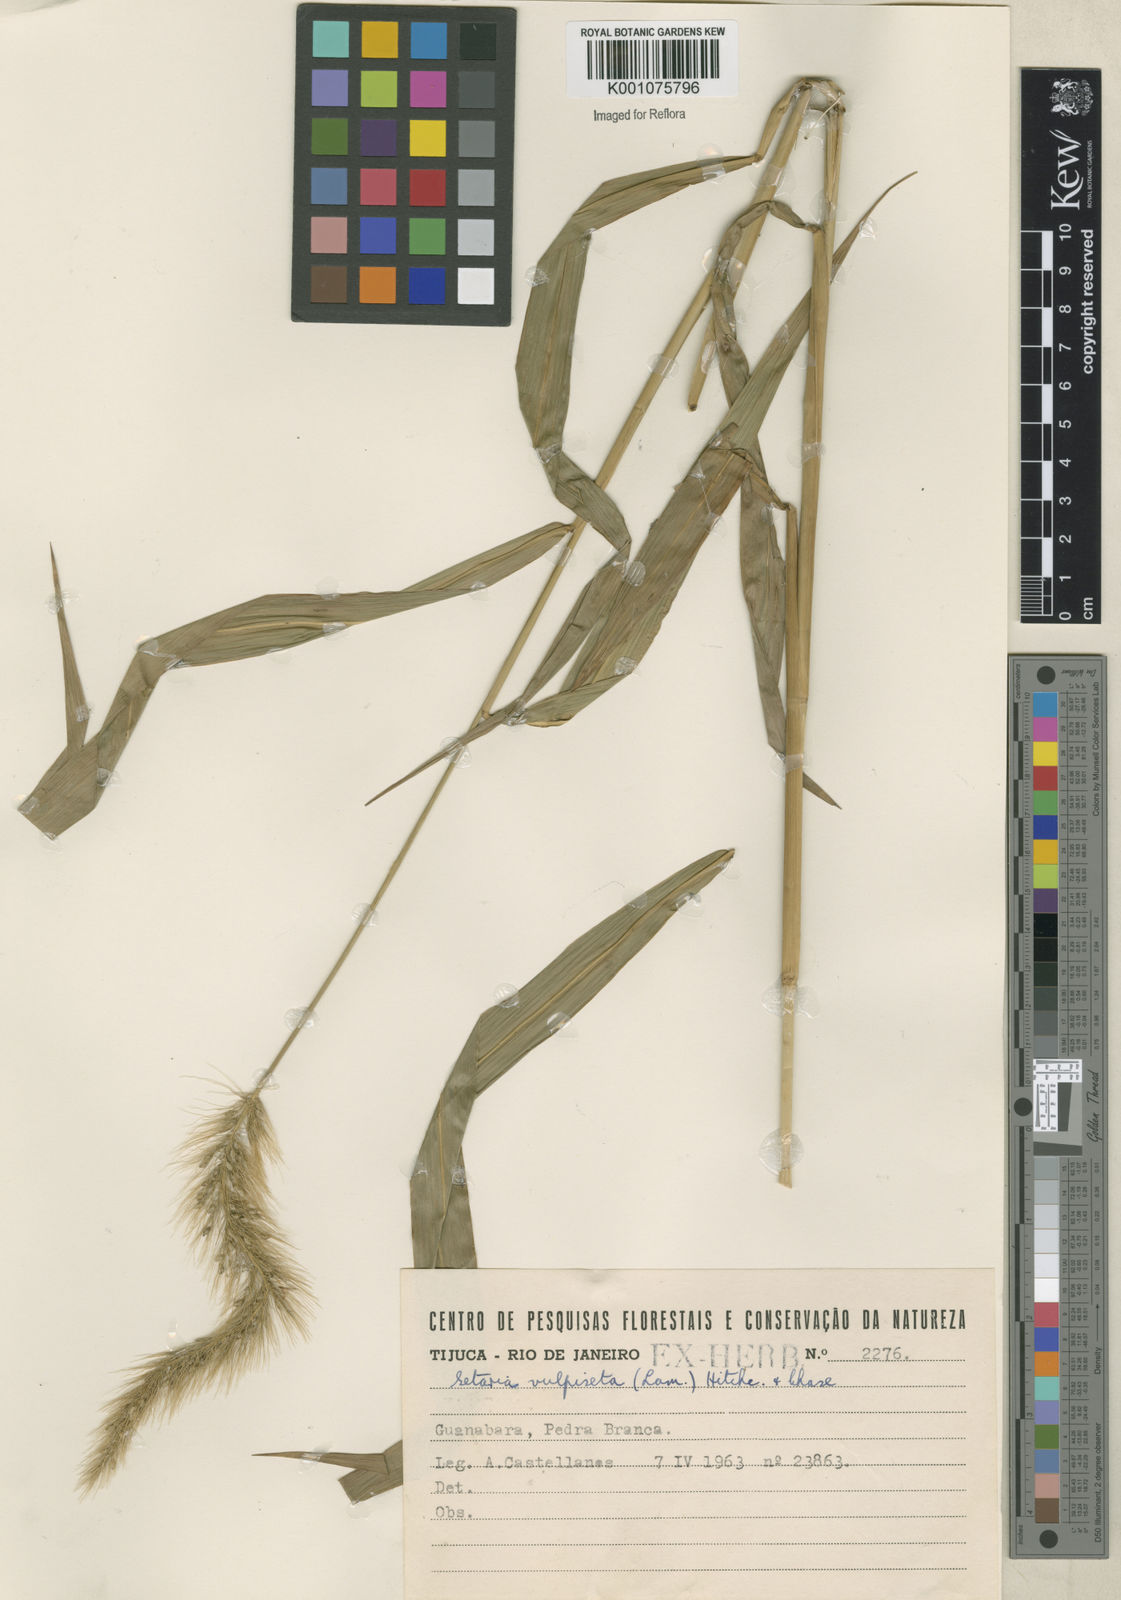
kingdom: Plantae
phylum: Tracheophyta
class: Liliopsida
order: Poales
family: Poaceae
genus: Setaria
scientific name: Setaria vulpiseta
